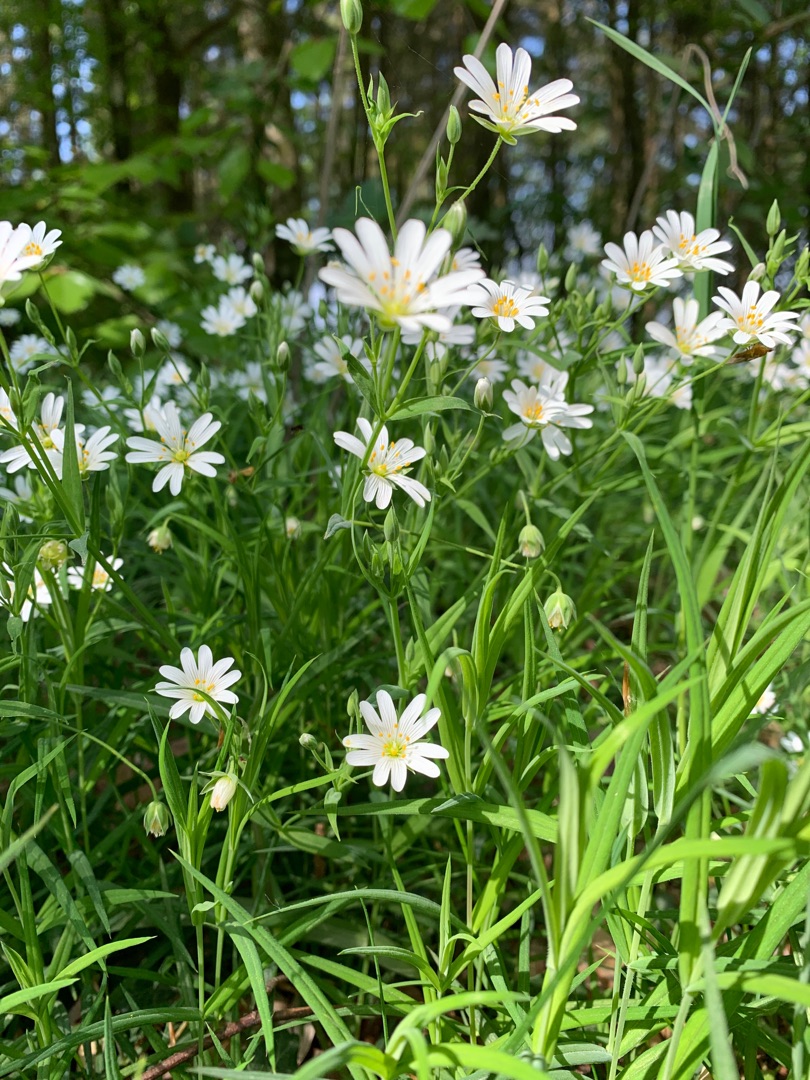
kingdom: Plantae
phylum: Tracheophyta
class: Magnoliopsida
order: Caryophyllales
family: Caryophyllaceae
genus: Rabelera
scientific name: Rabelera holostea
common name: Stor fladstjerne
